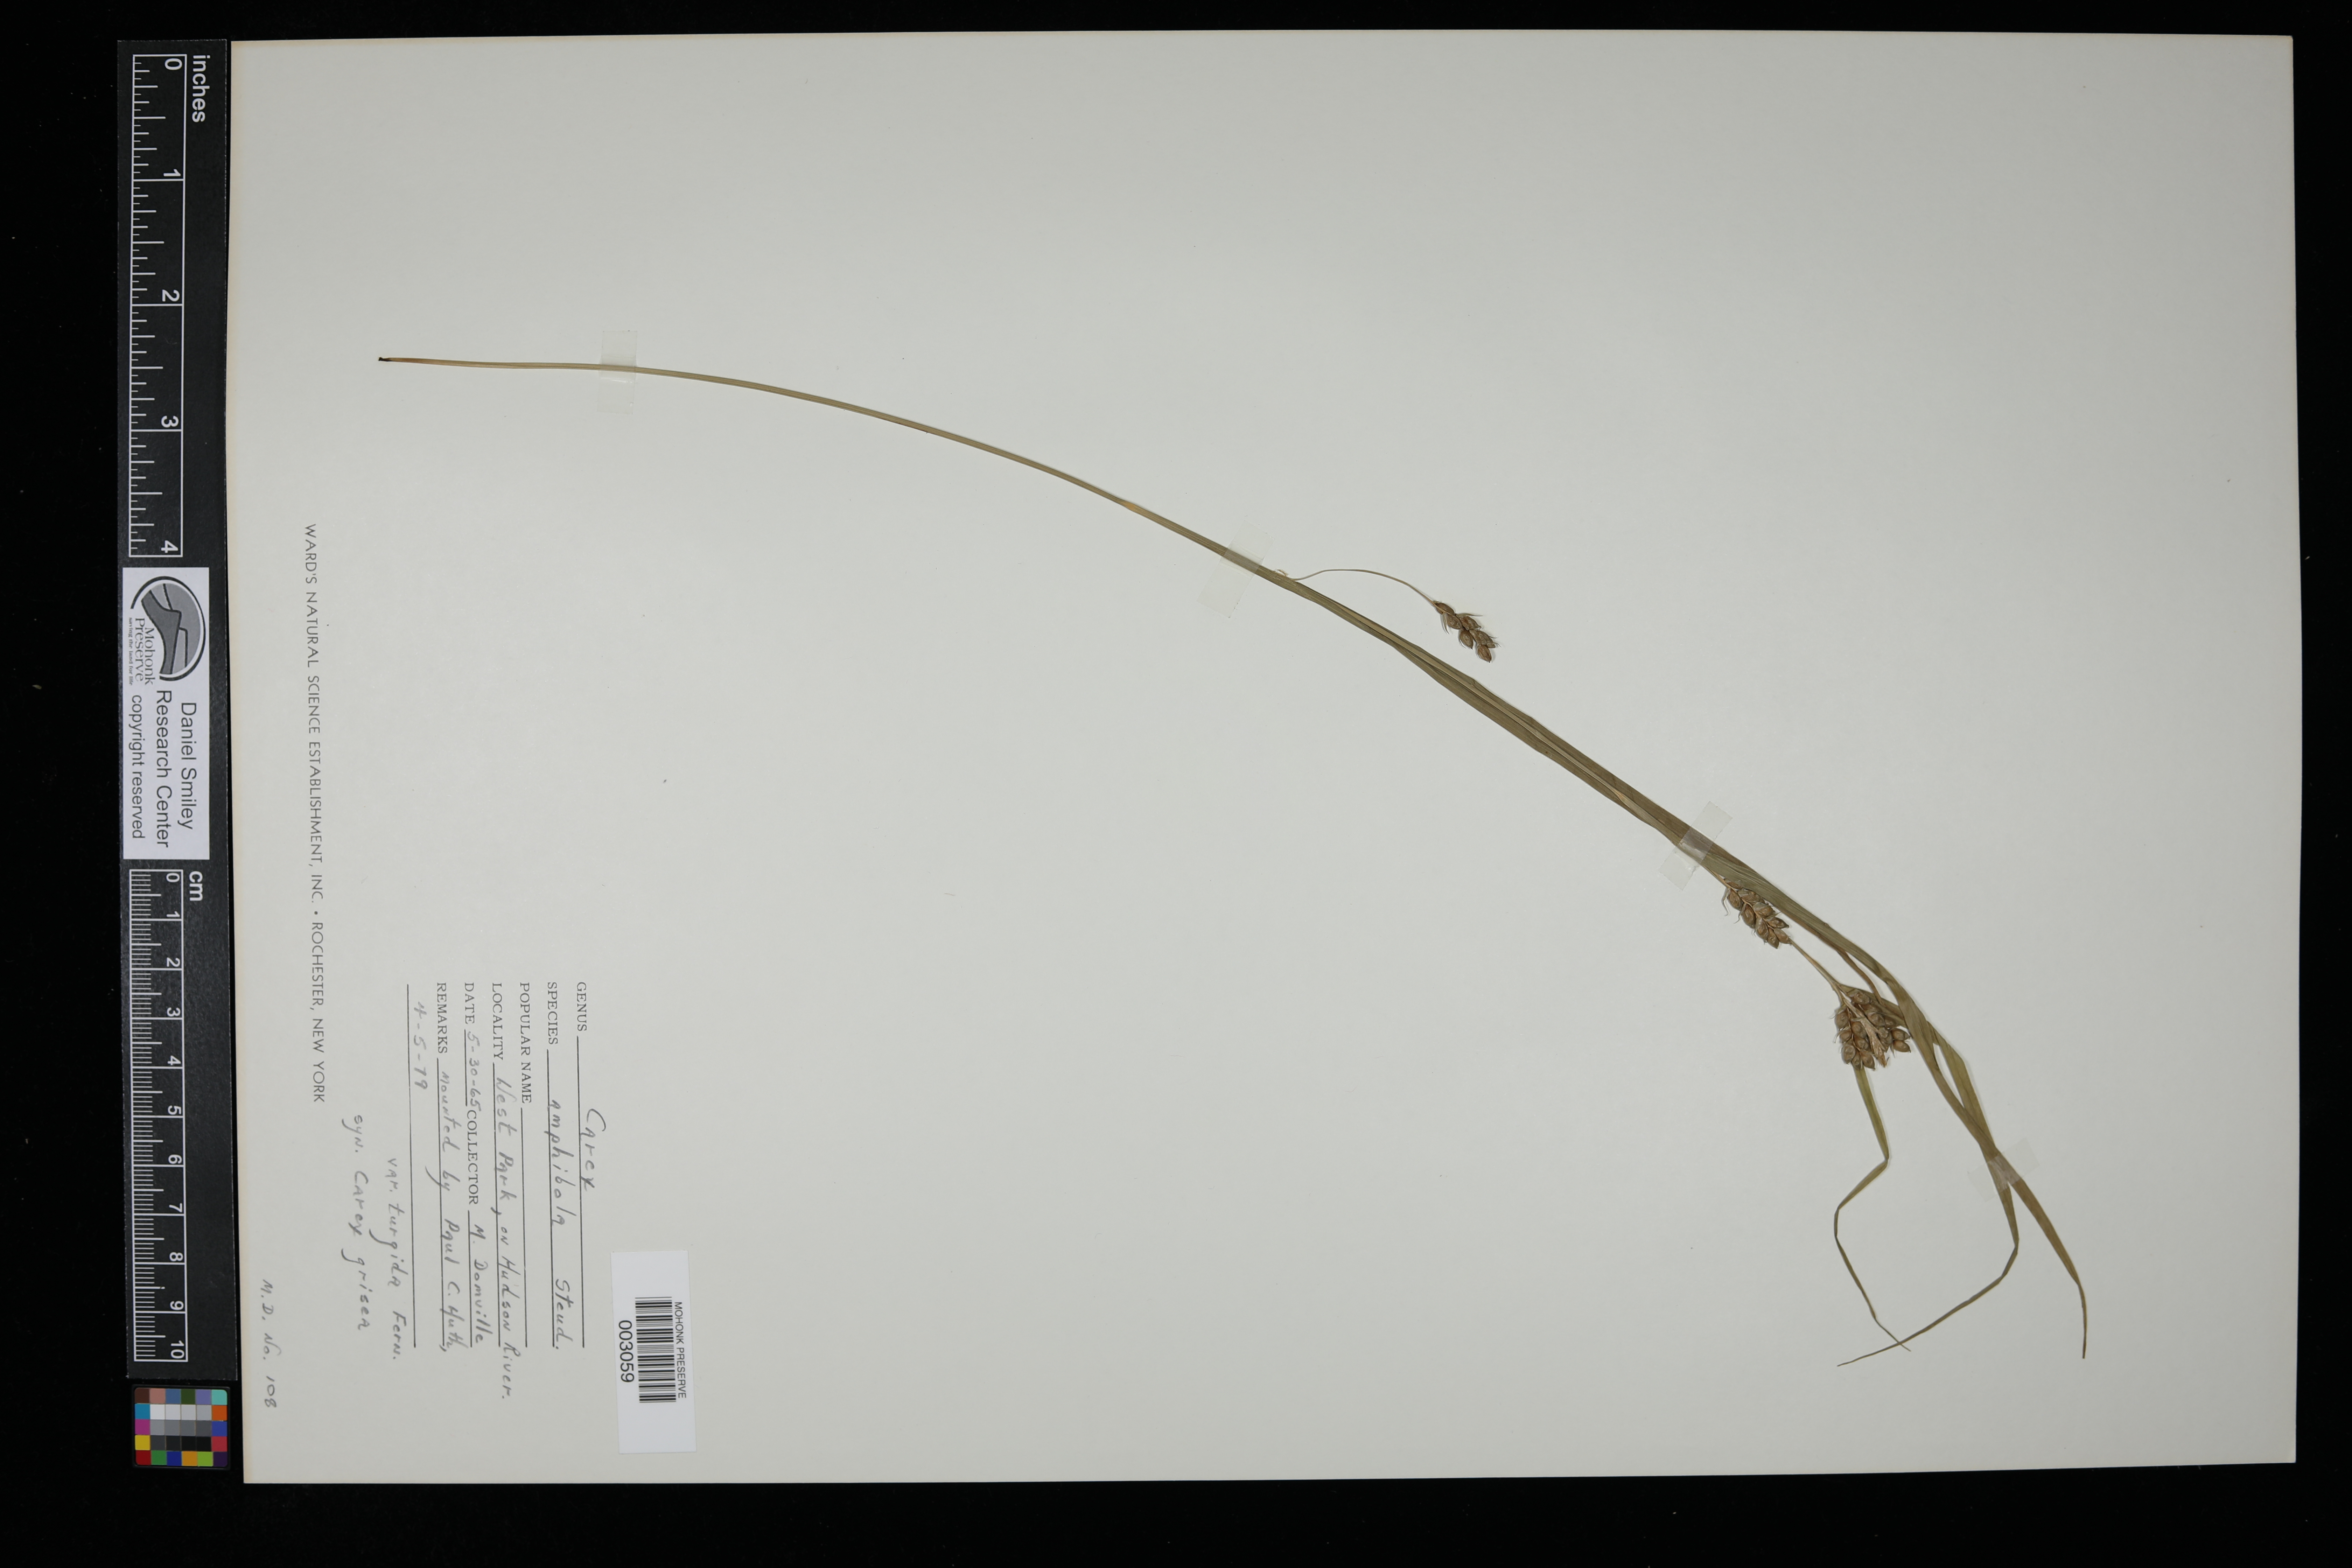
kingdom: Plantae
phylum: Tracheophyta
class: Liliopsida
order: Poales
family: Cyperaceae
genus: Carex
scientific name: Carex grisea
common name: Eastern narrow-leaved sedge
